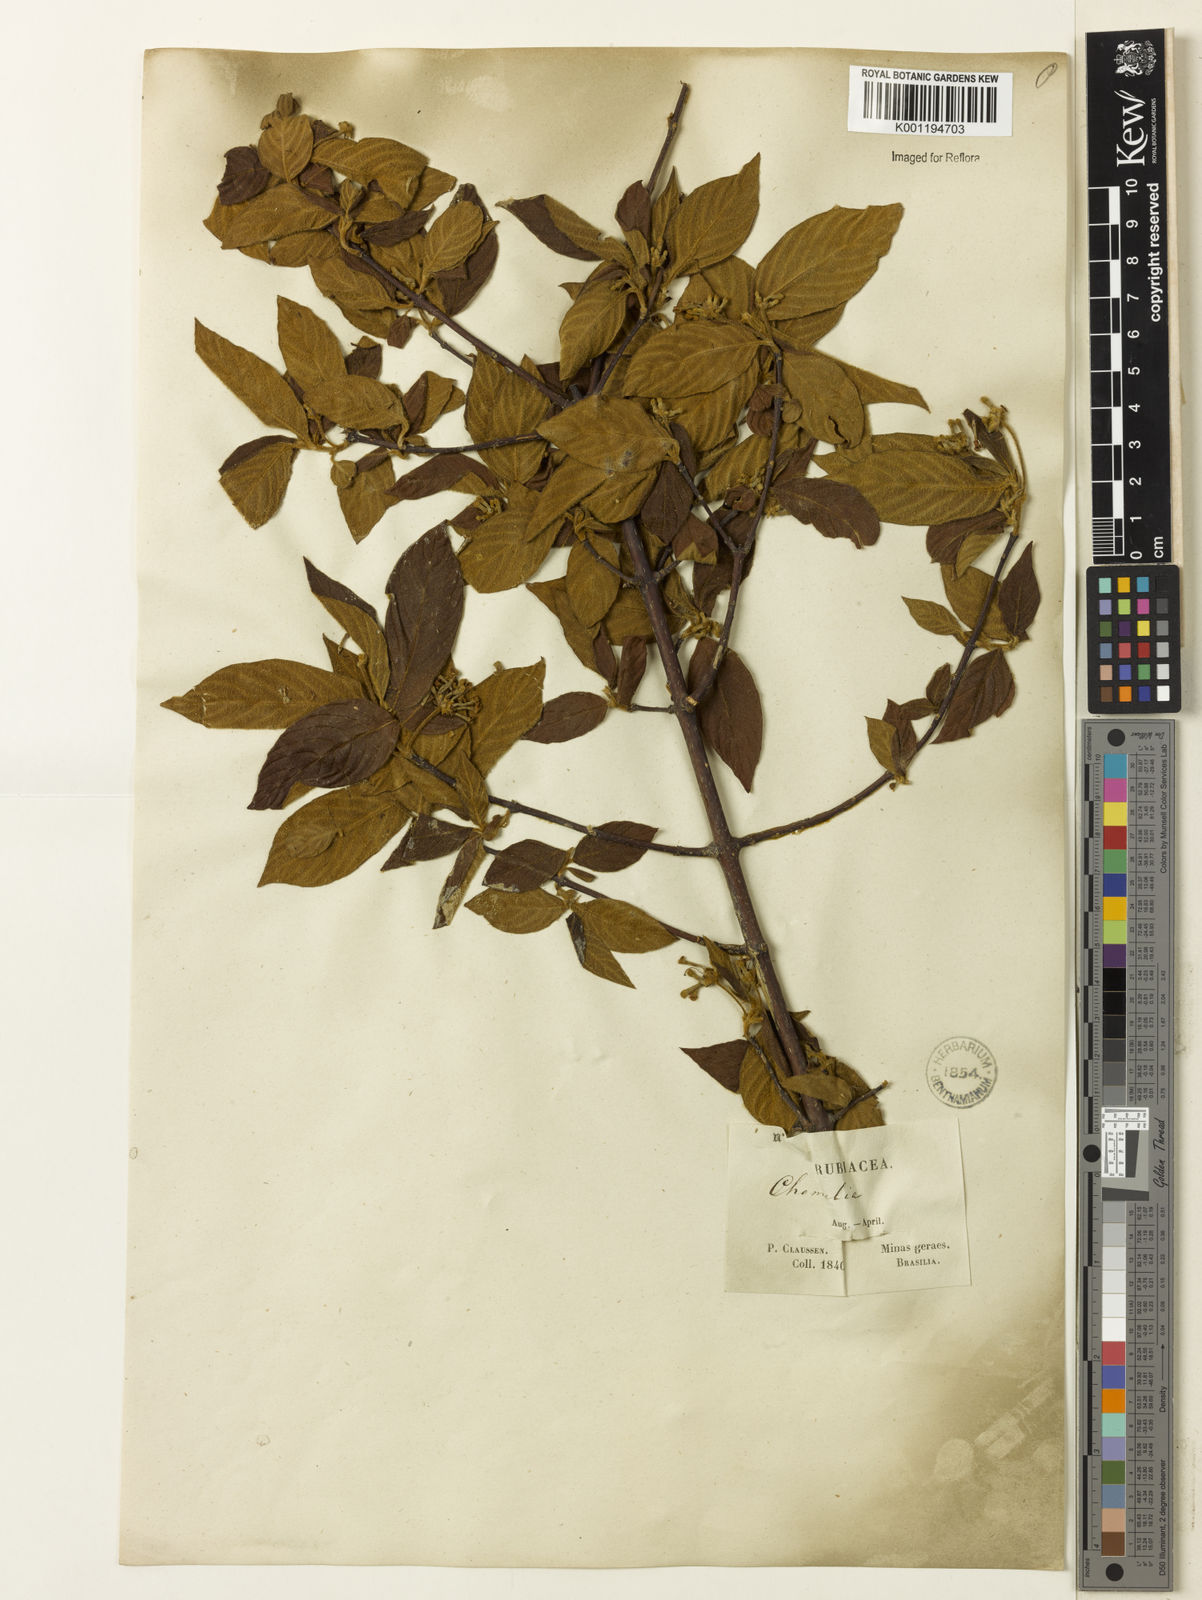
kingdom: Plantae
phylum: Tracheophyta
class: Magnoliopsida
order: Gentianales
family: Rubiaceae
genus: Guettarda
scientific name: Guettarda uruguensis
